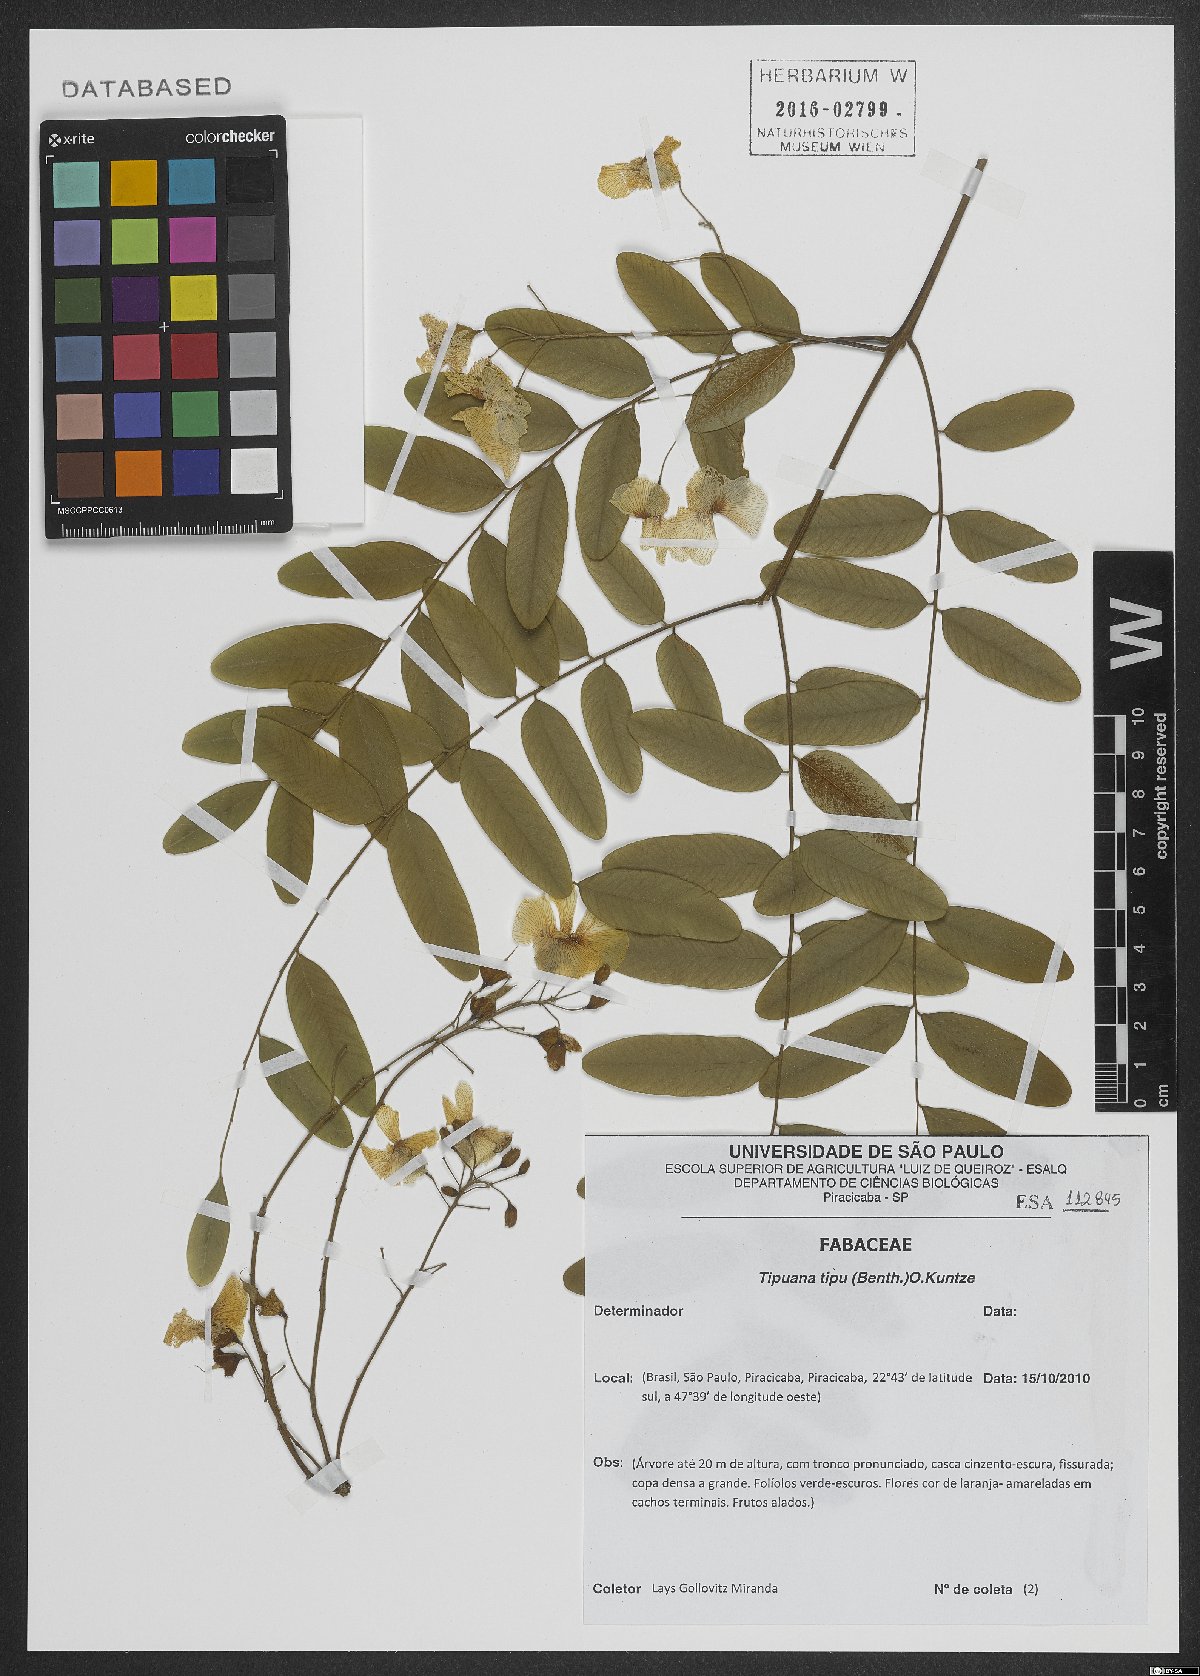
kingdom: Plantae
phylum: Tracheophyta
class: Magnoliopsida
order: Fabales
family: Fabaceae
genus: Tipuana
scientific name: Tipuana tipu
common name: Tiputree
